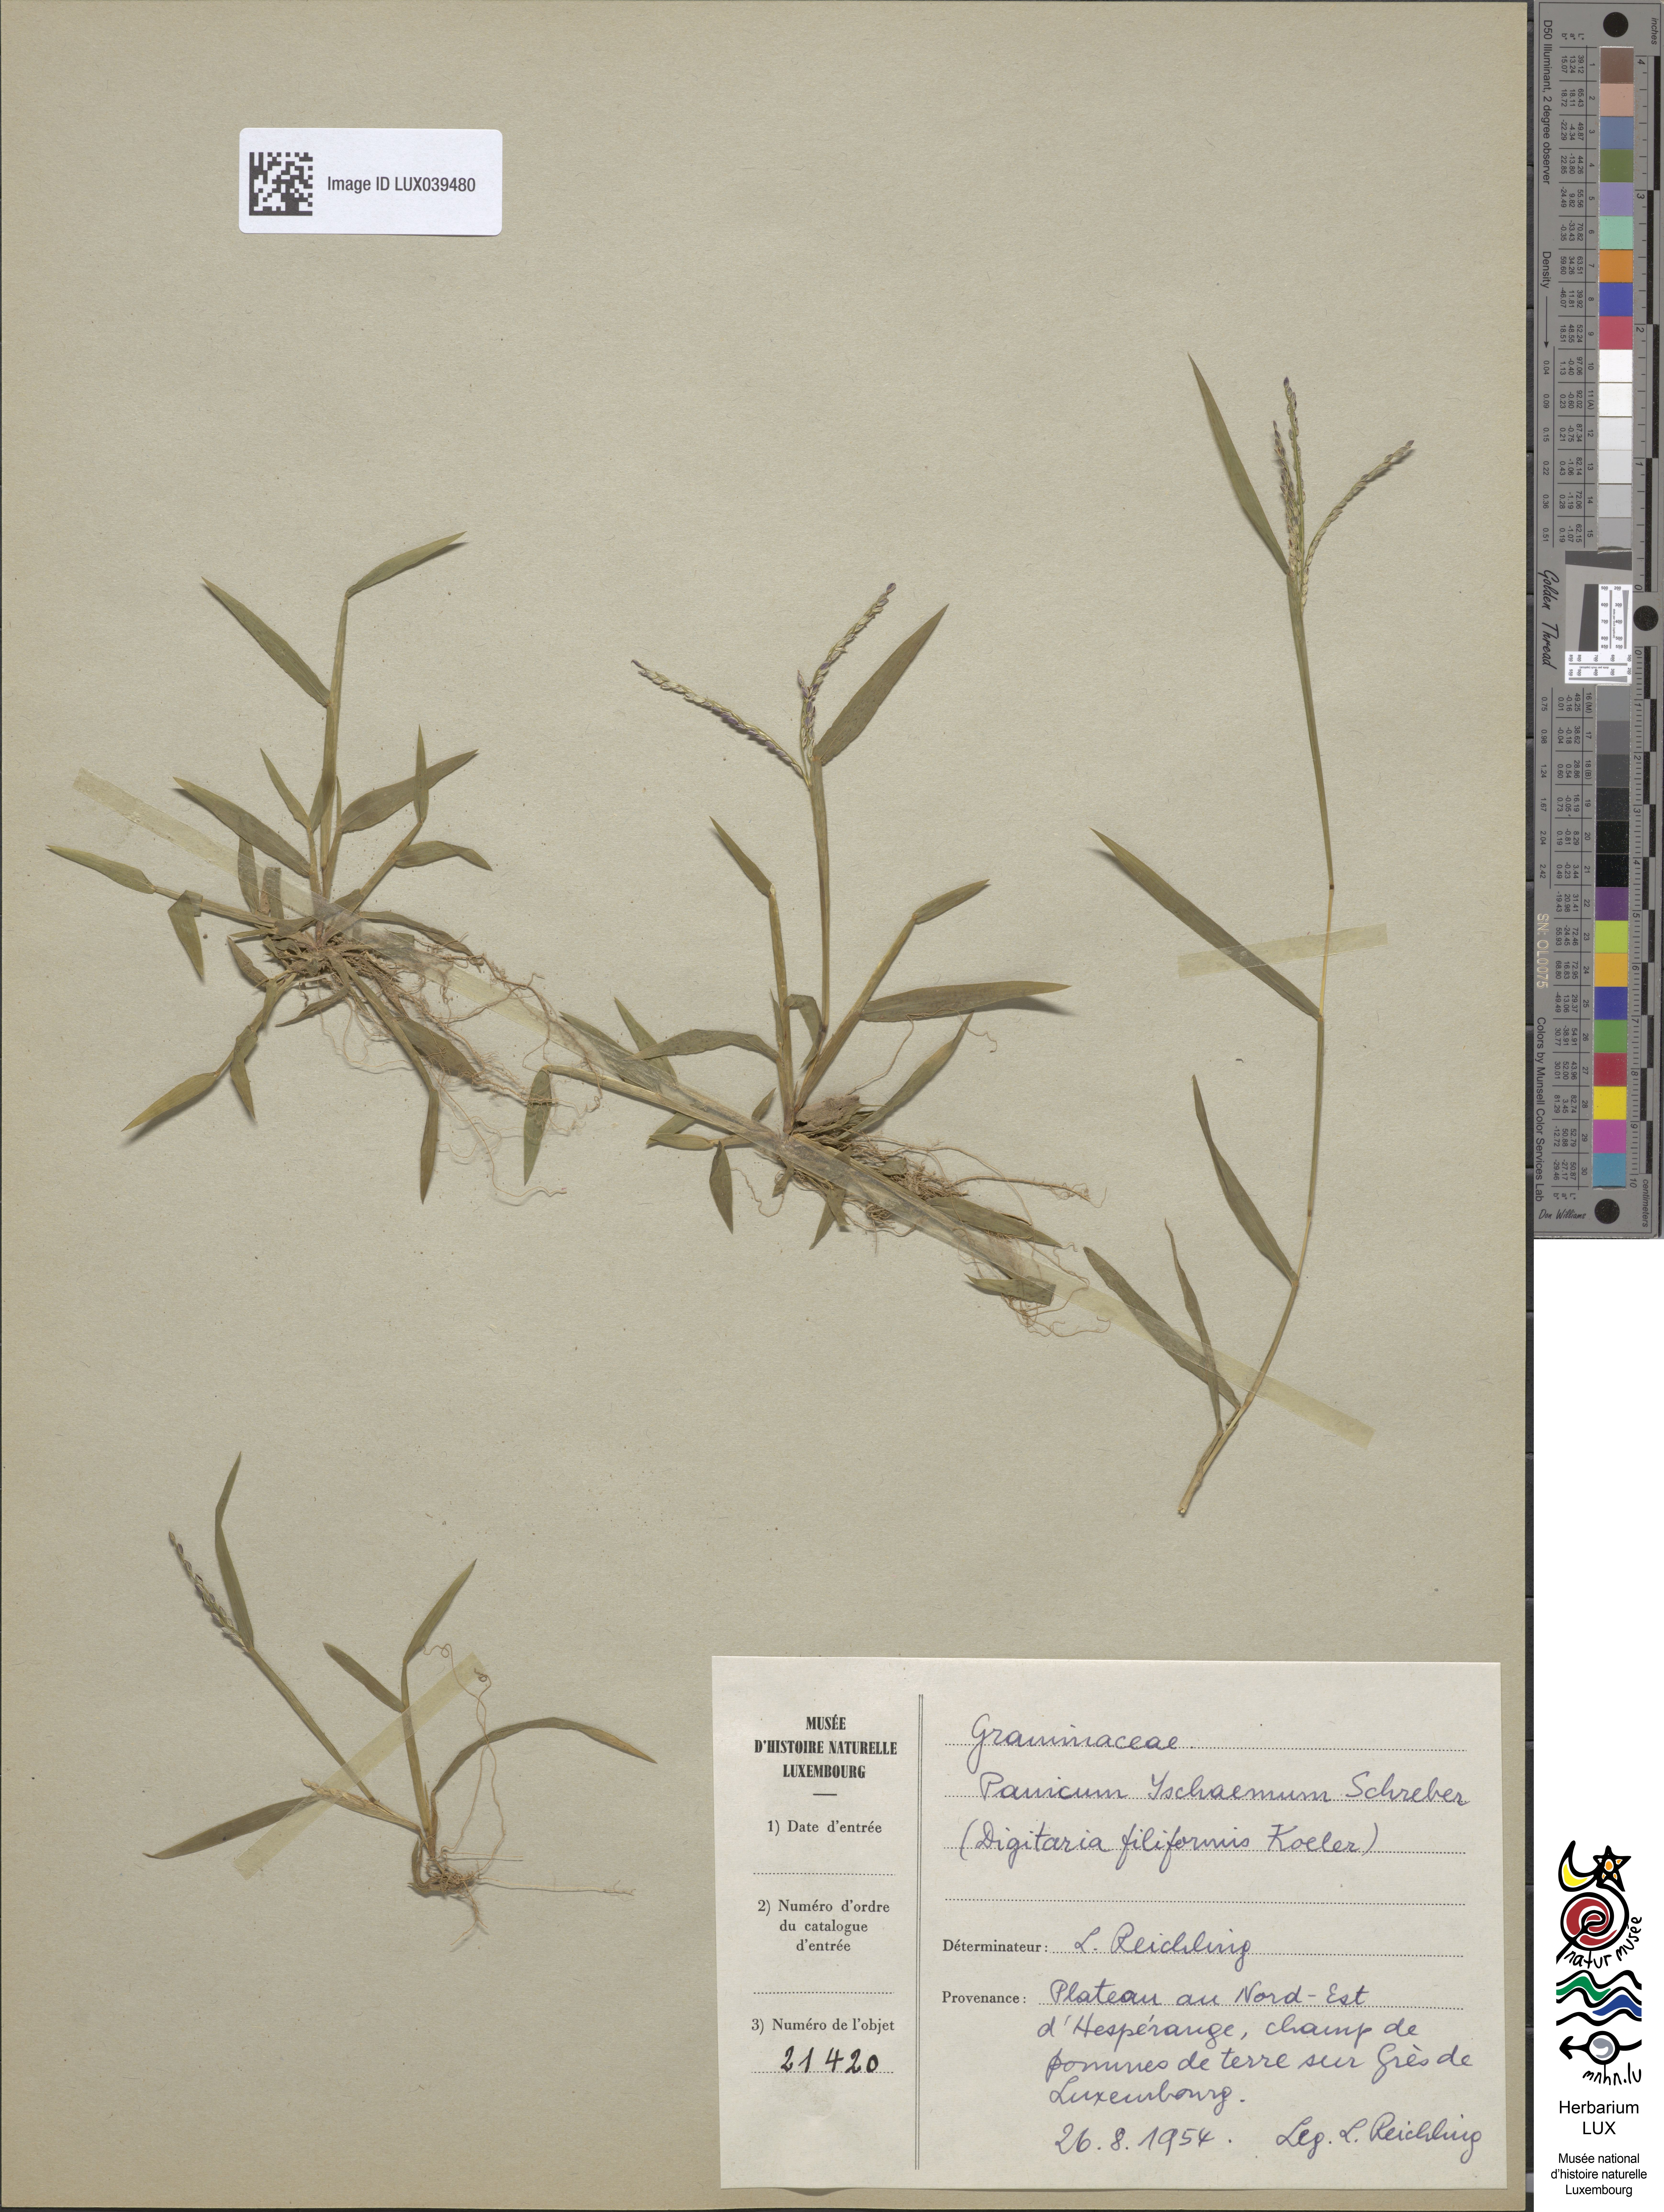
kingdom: Plantae
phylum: Tracheophyta
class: Liliopsida
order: Poales
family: Poaceae
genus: Digitaria
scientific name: Digitaria ischaemum
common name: Smooth crabgrass
